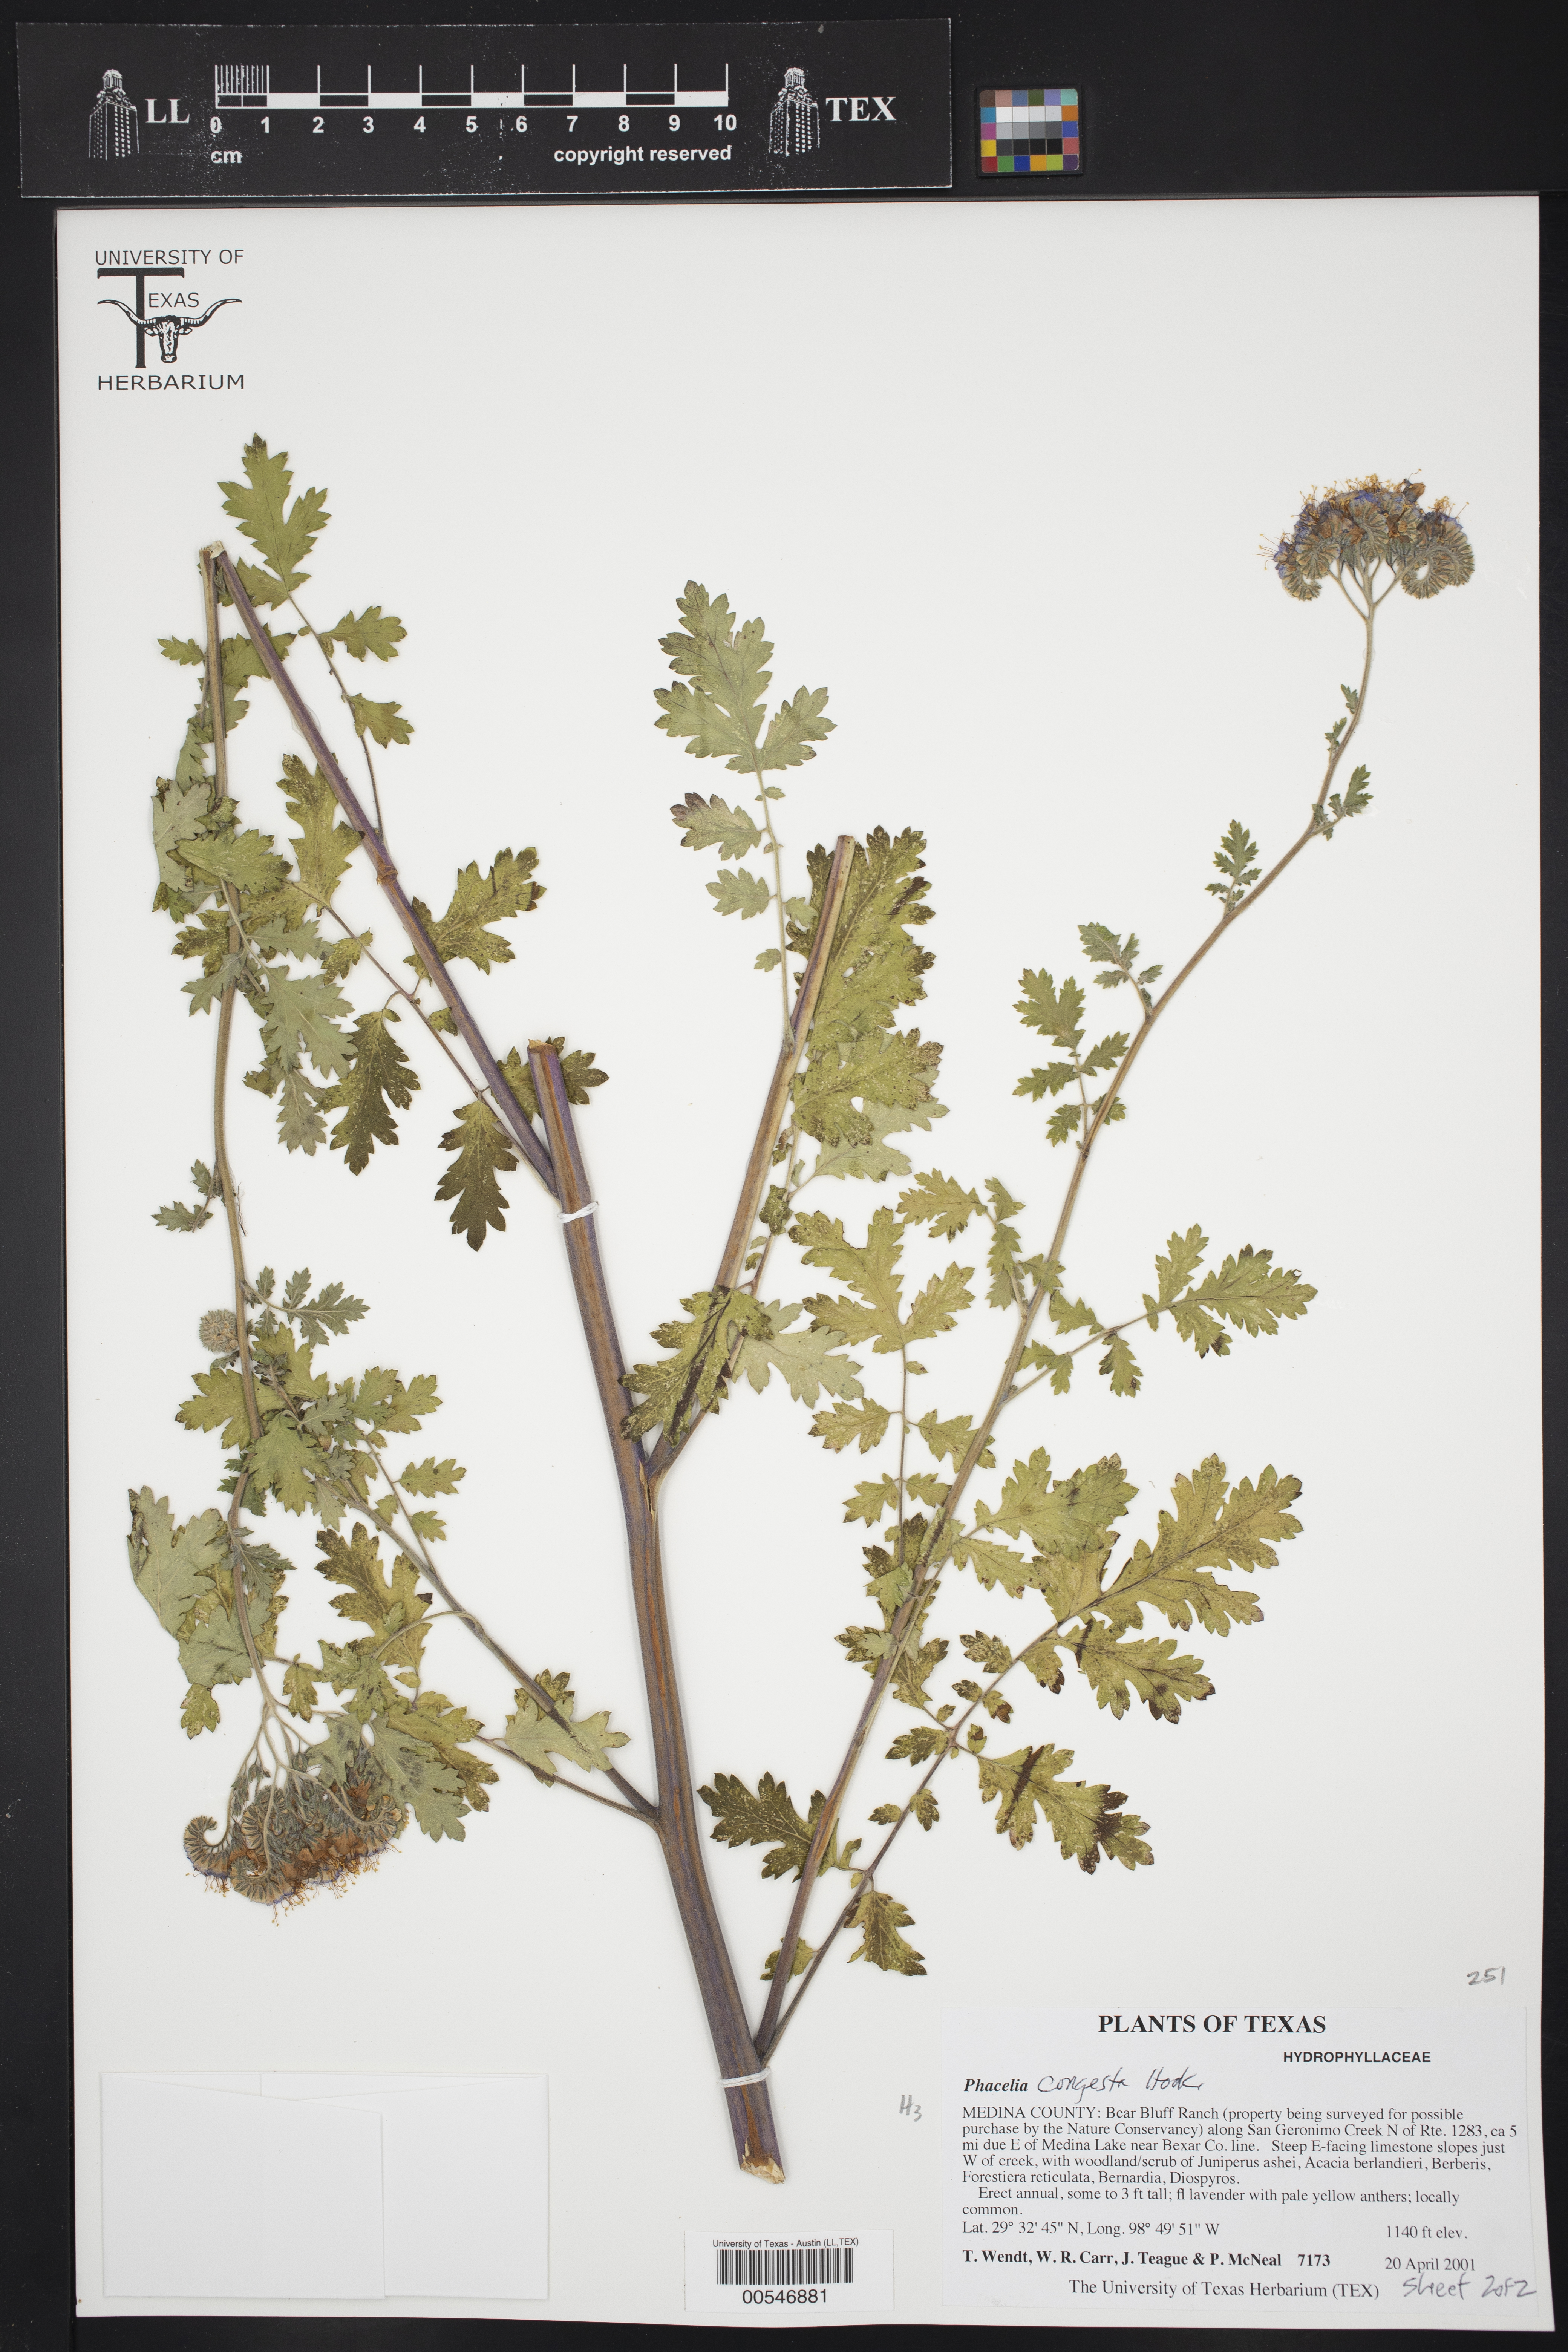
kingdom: Plantae
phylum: Tracheophyta
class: Magnoliopsida
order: Boraginales
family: Hydrophyllaceae
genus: Phacelia
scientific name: Phacelia congesta
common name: Blue curls
